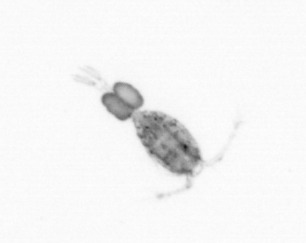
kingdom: Animalia
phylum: Arthropoda
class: Copepoda
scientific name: Copepoda
